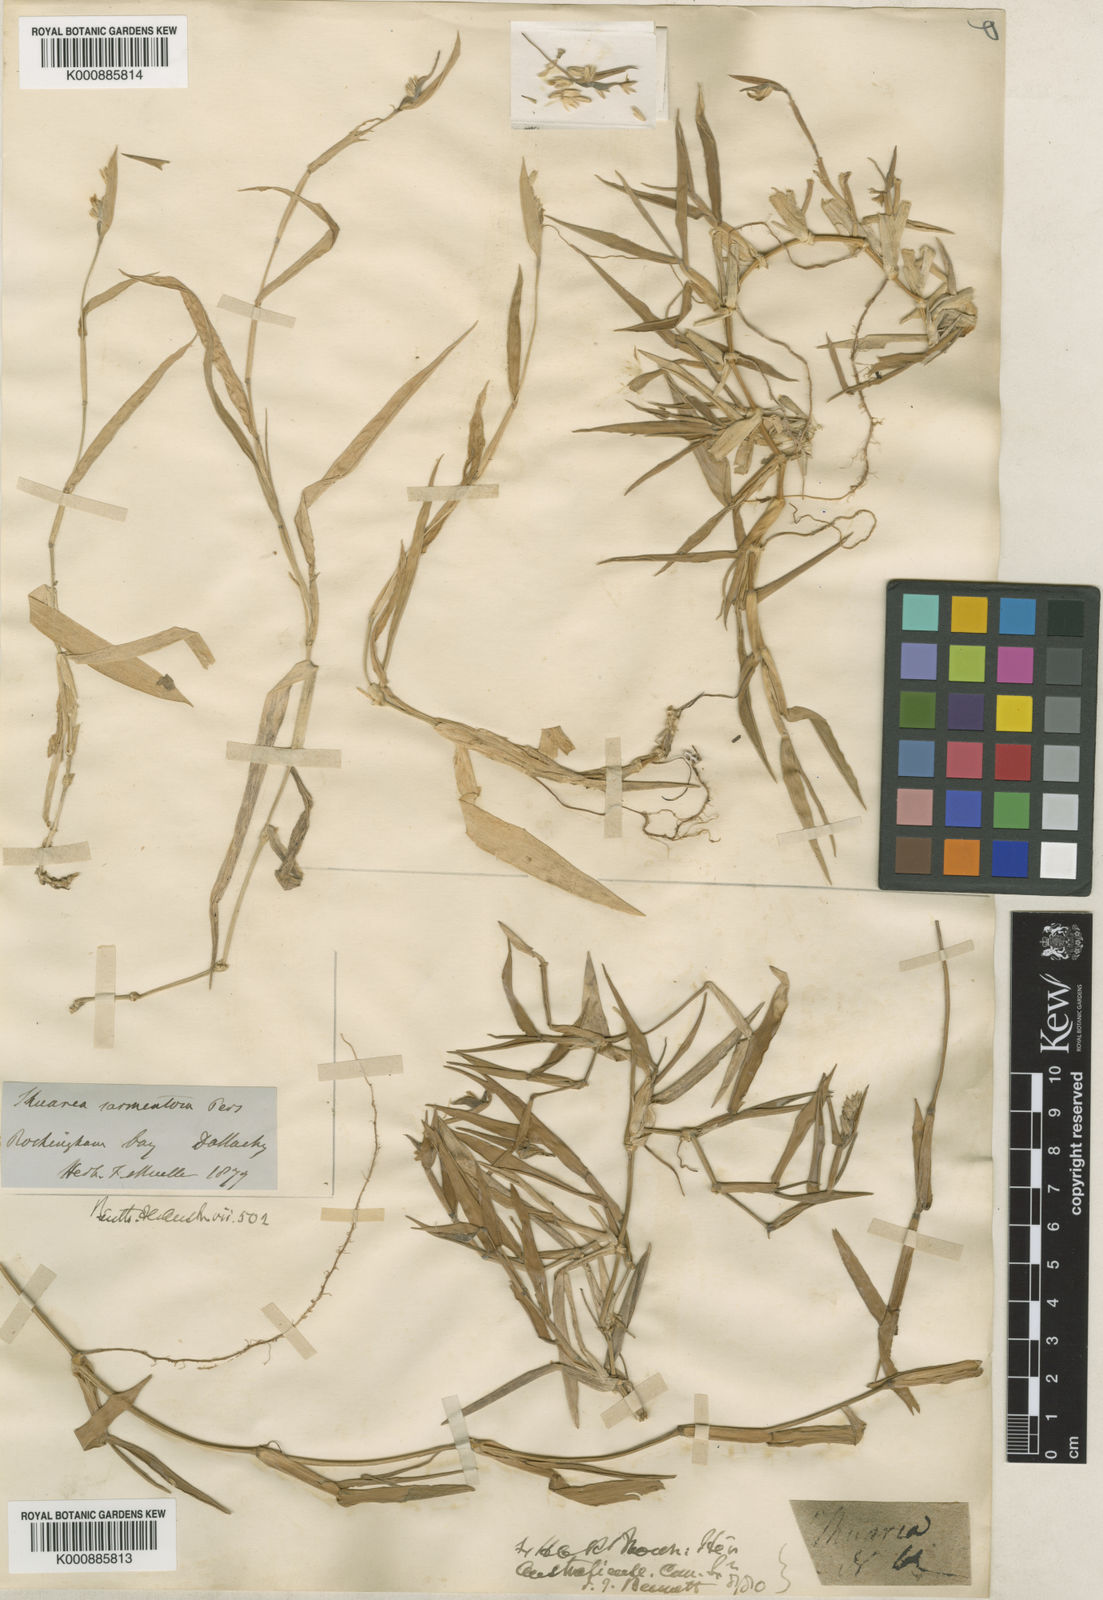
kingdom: Plantae
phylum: Tracheophyta
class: Liliopsida
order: Poales
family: Poaceae
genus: Thuarea
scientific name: Thuarea involuta
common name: Tropical beach grass
